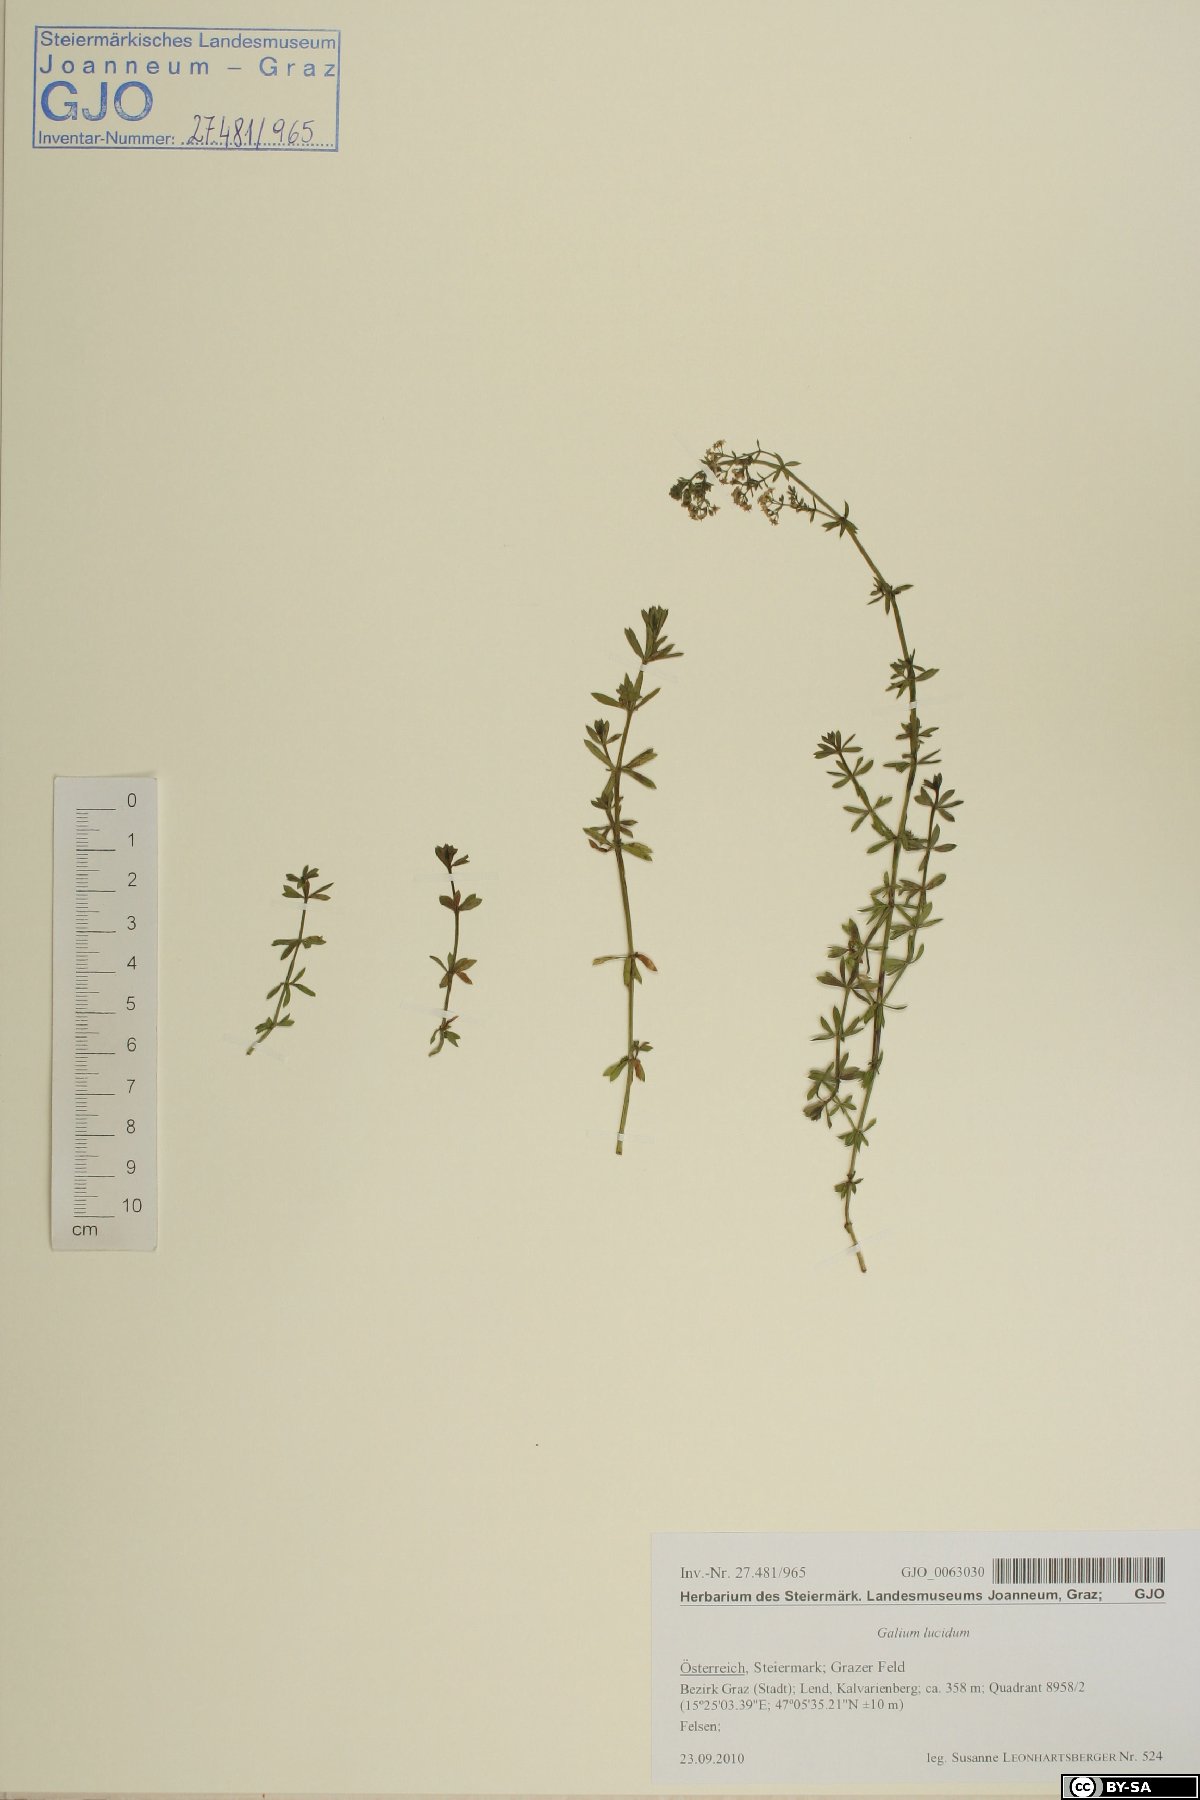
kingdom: Plantae
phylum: Tracheophyta
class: Magnoliopsida
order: Gentianales
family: Rubiaceae
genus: Galium
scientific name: Galium lucidum
